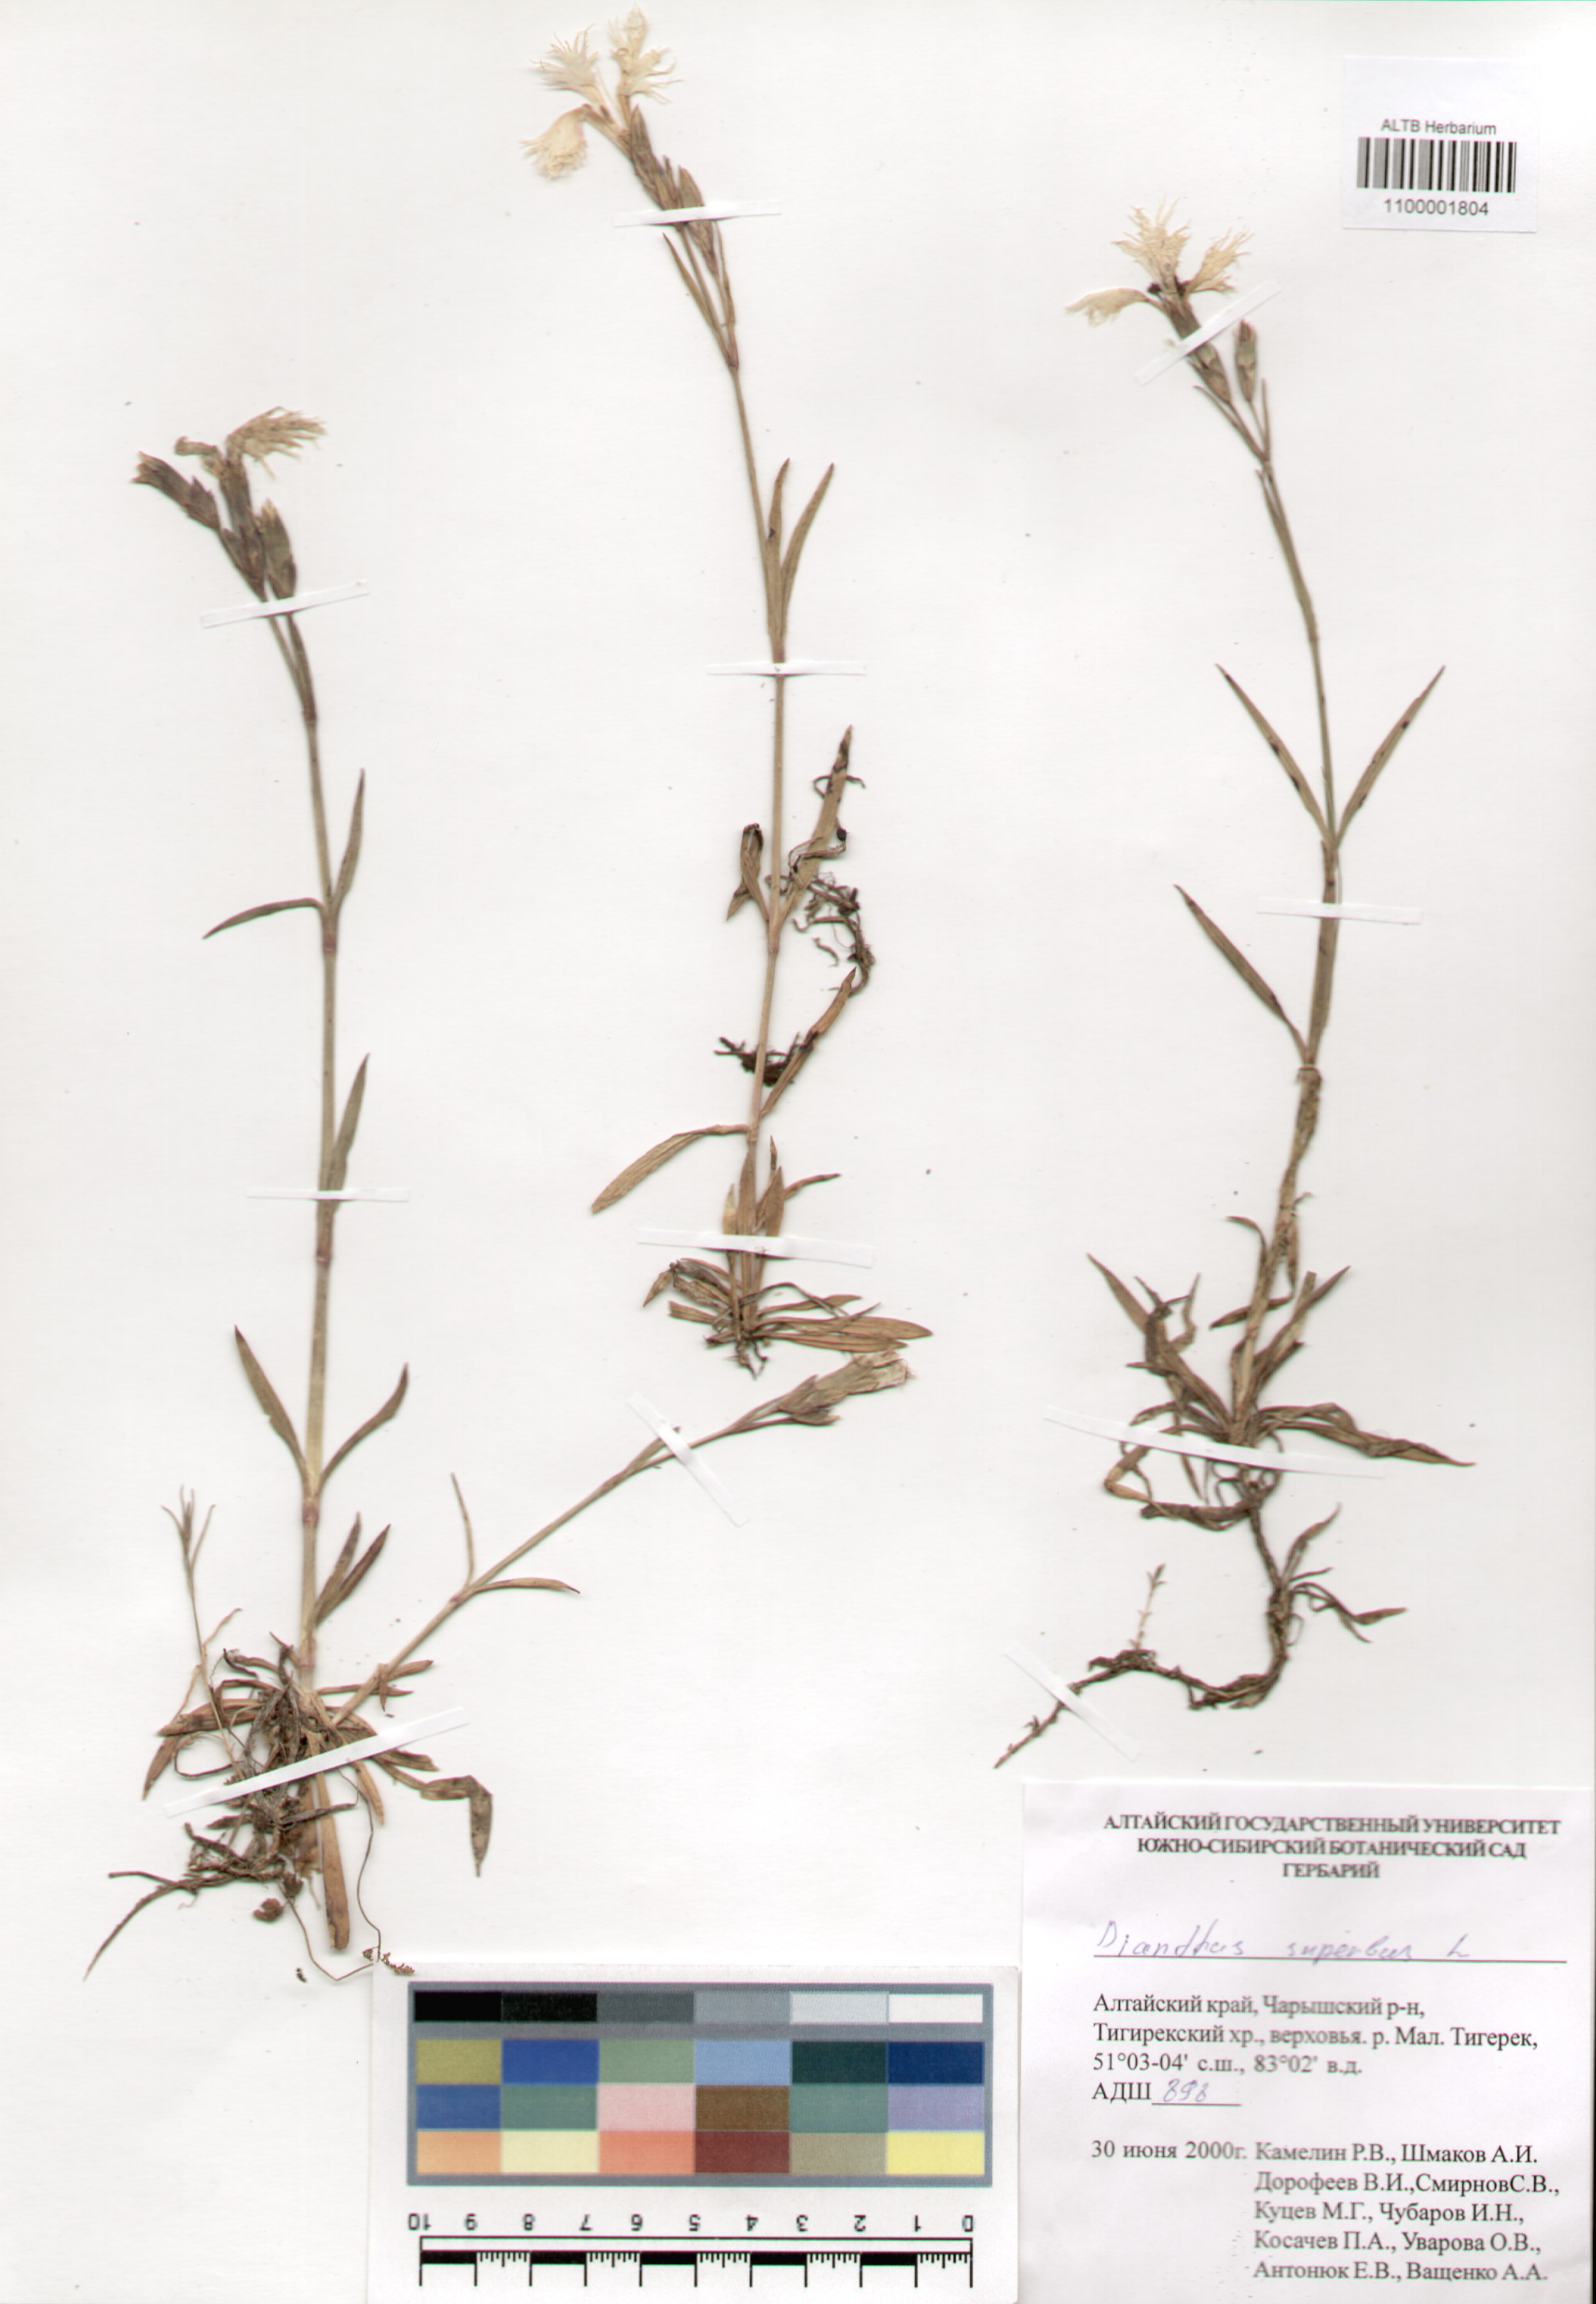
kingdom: Plantae
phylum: Tracheophyta
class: Magnoliopsida
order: Caryophyllales
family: Caryophyllaceae
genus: Dianthus
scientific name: Dianthus superbus
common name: Fringed pink
